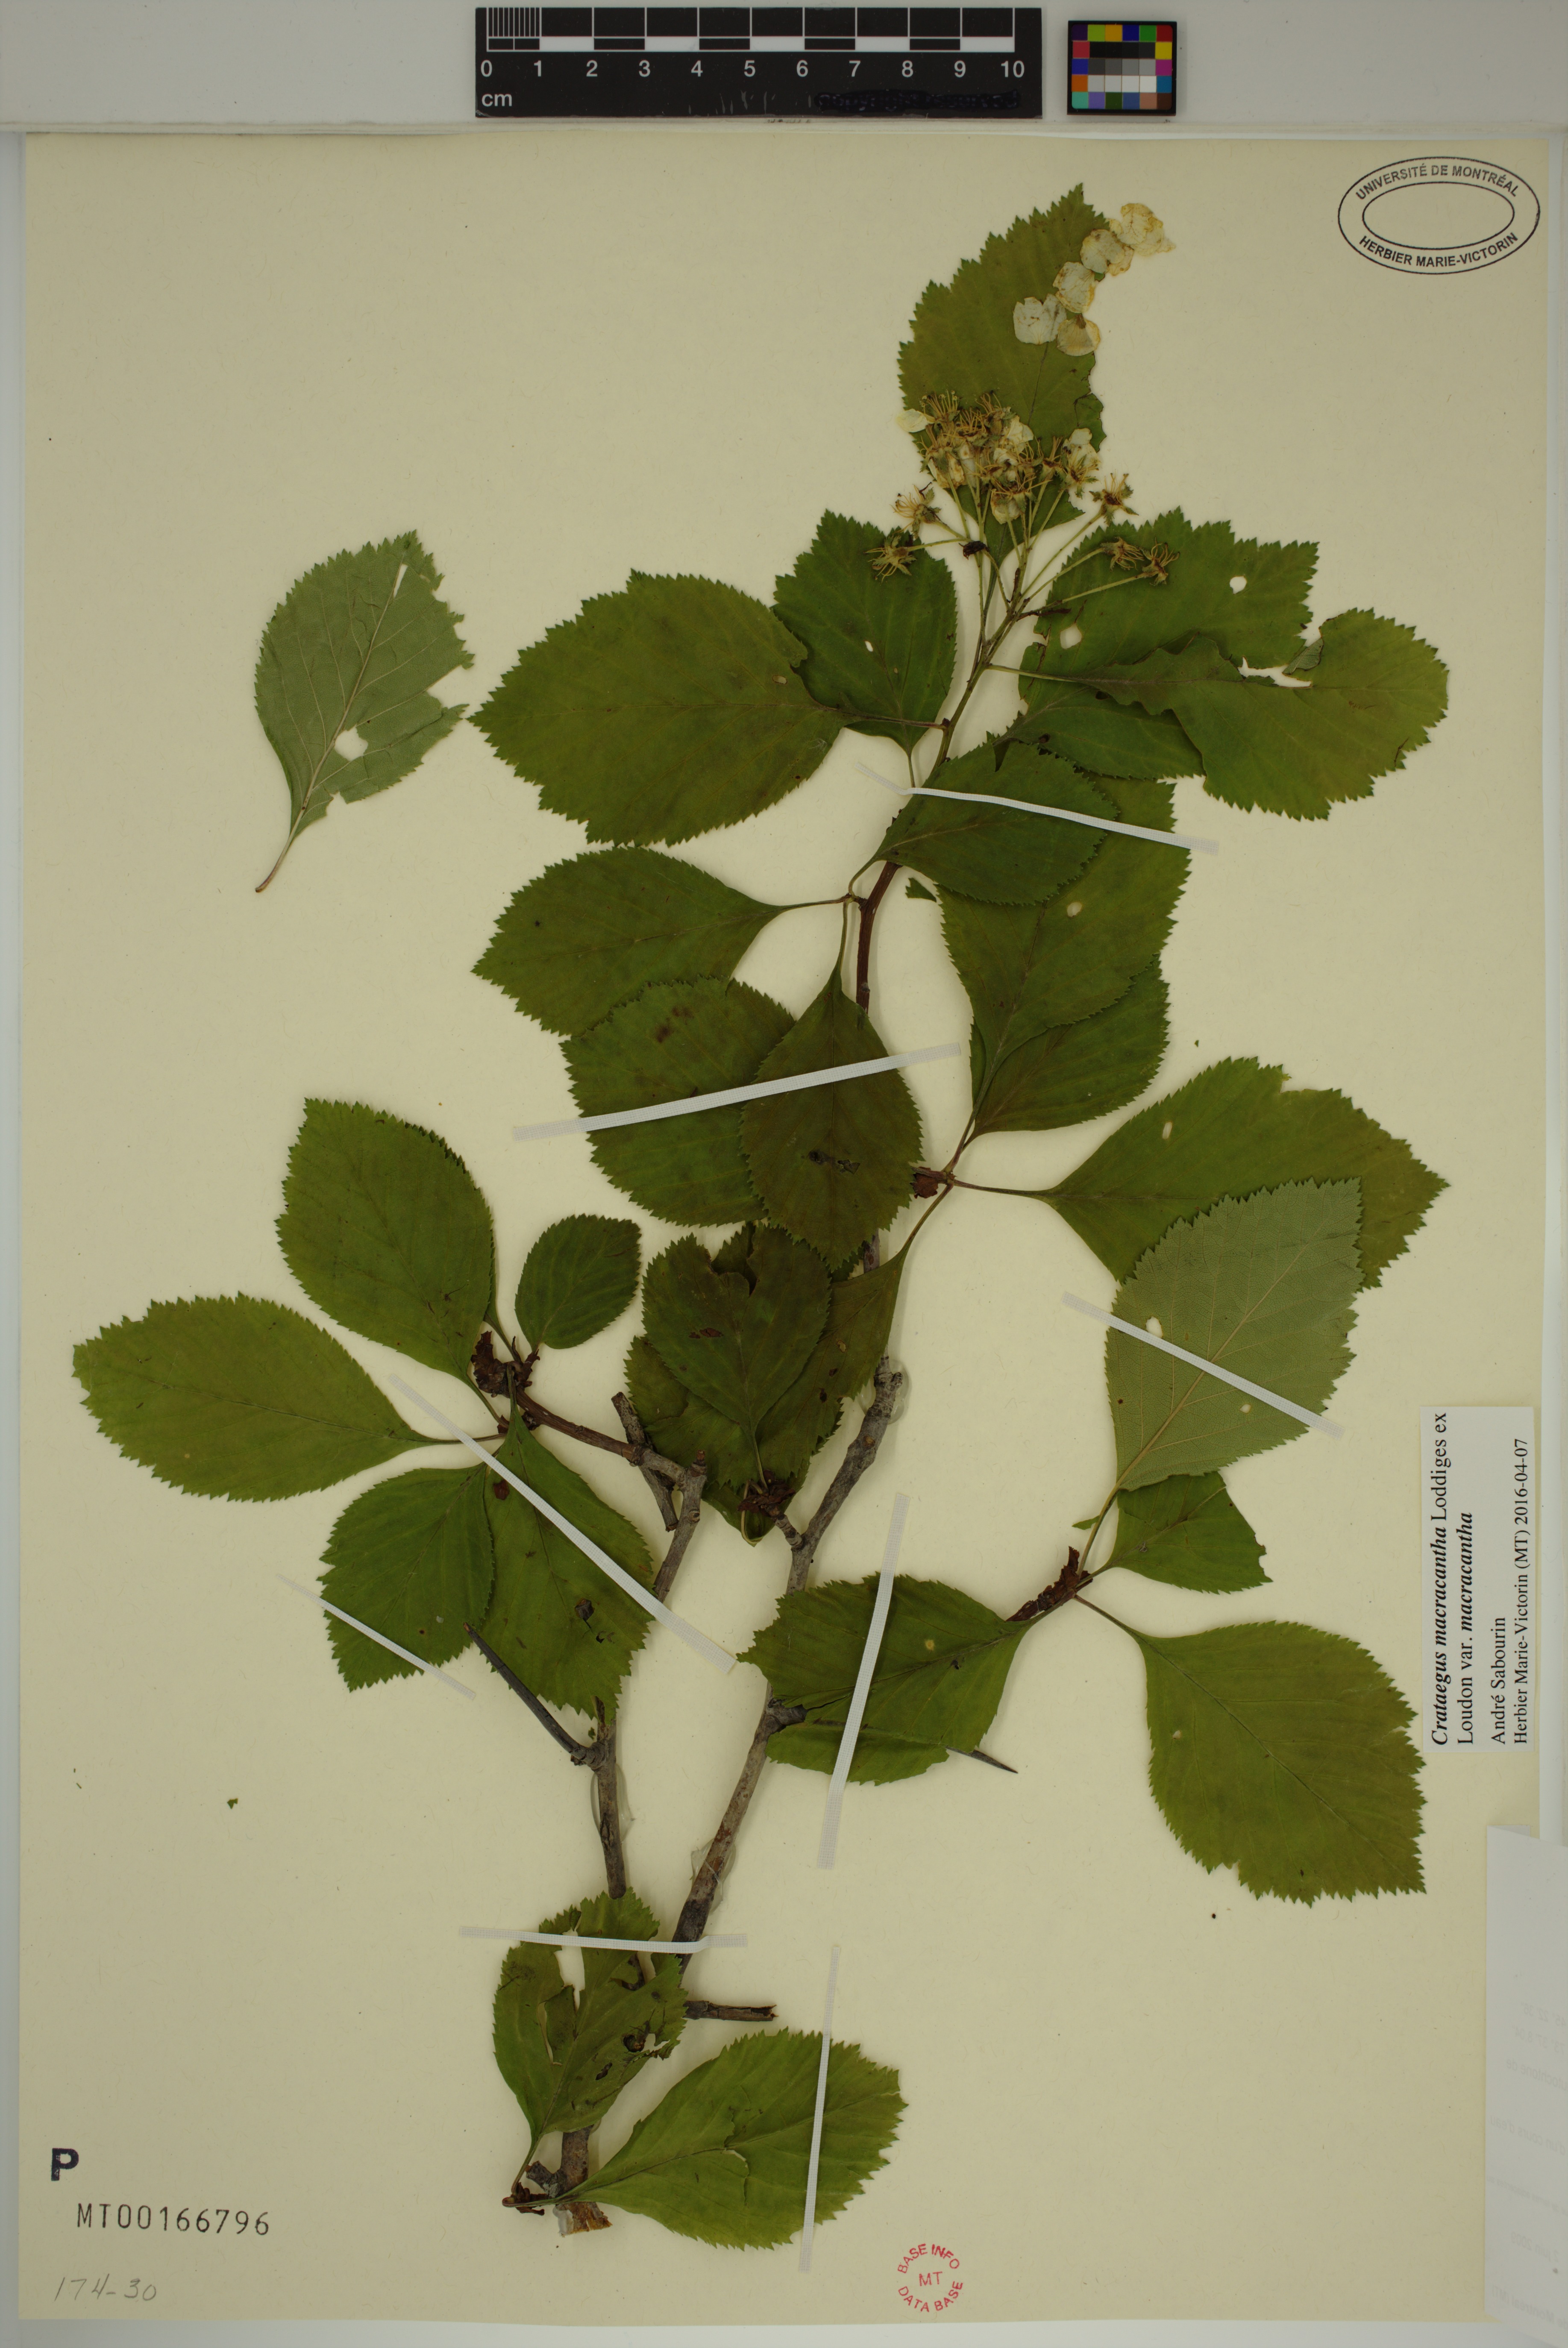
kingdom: Plantae
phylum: Tracheophyta
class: Magnoliopsida
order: Rosales
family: Rosaceae
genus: Crataegus
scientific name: Crataegus macracantha
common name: Large-thorn hawthorn
